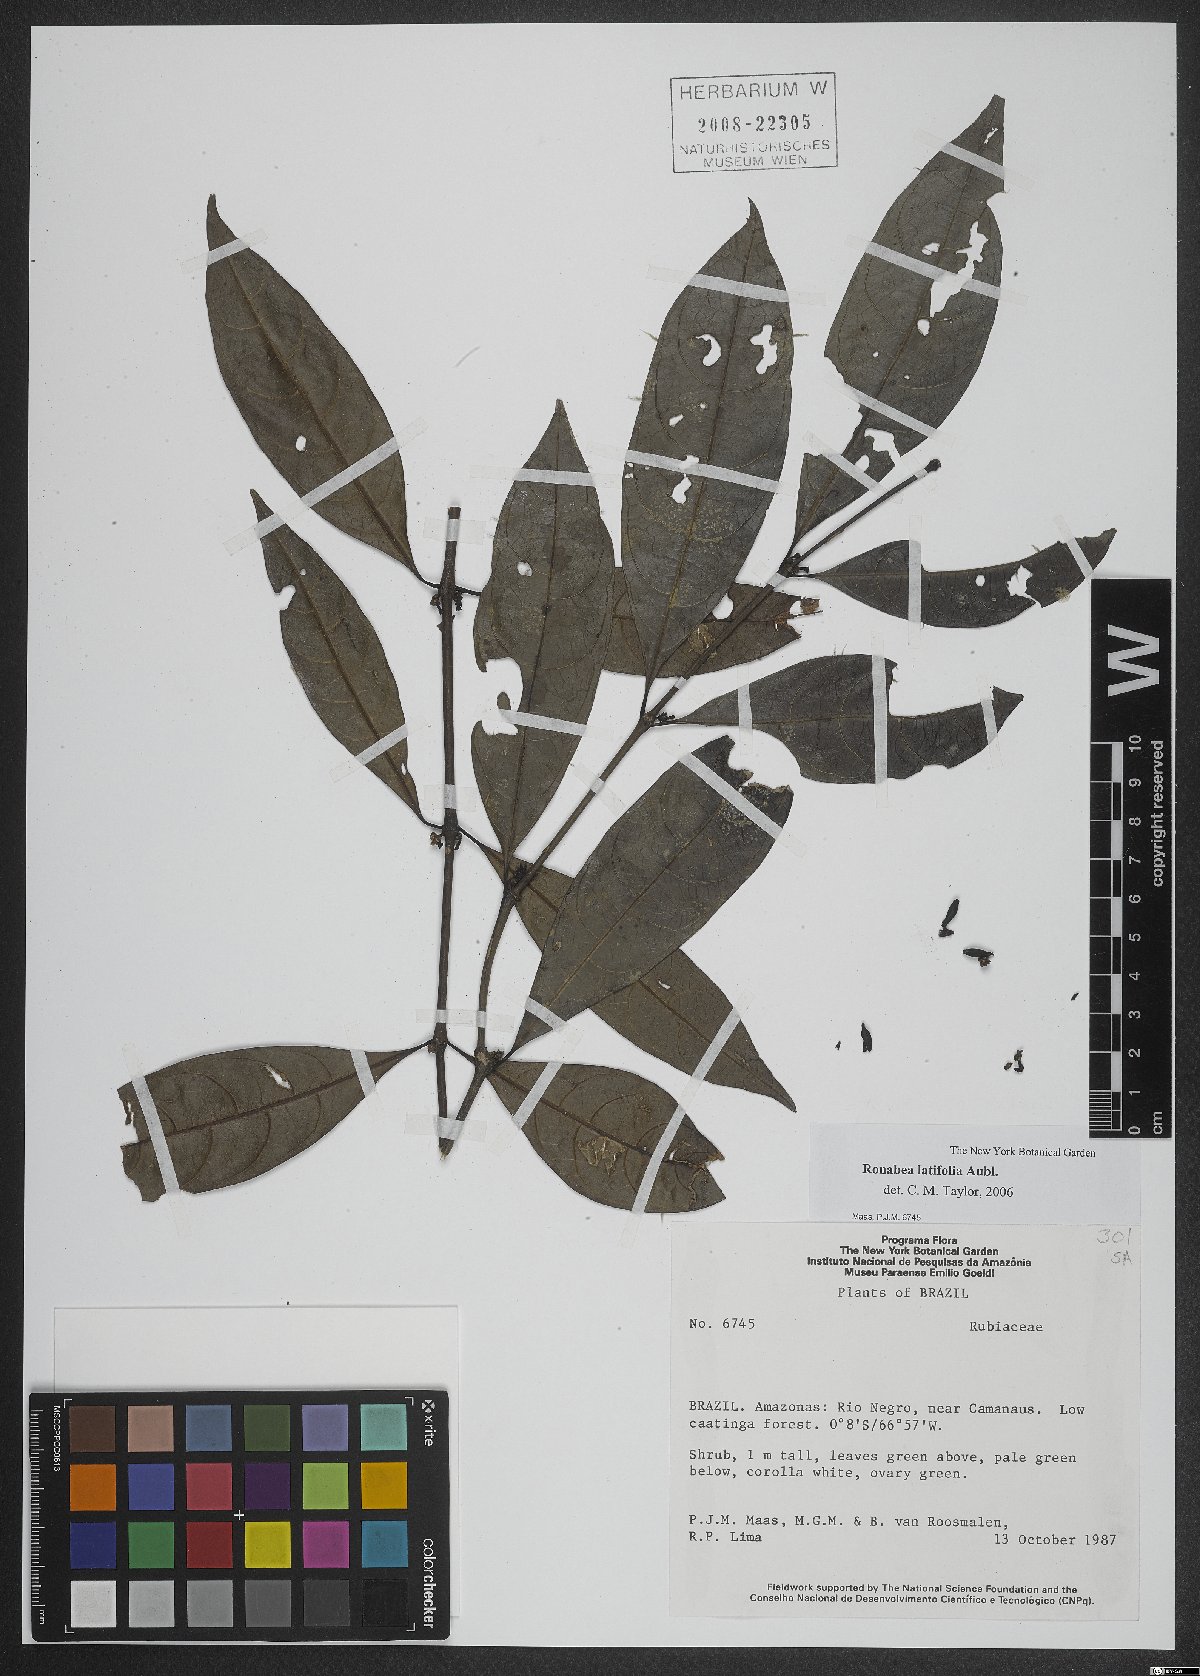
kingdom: Plantae
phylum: Tracheophyta
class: Magnoliopsida
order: Gentianales
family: Rubiaceae
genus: Ronabea
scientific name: Ronabea latifolia
